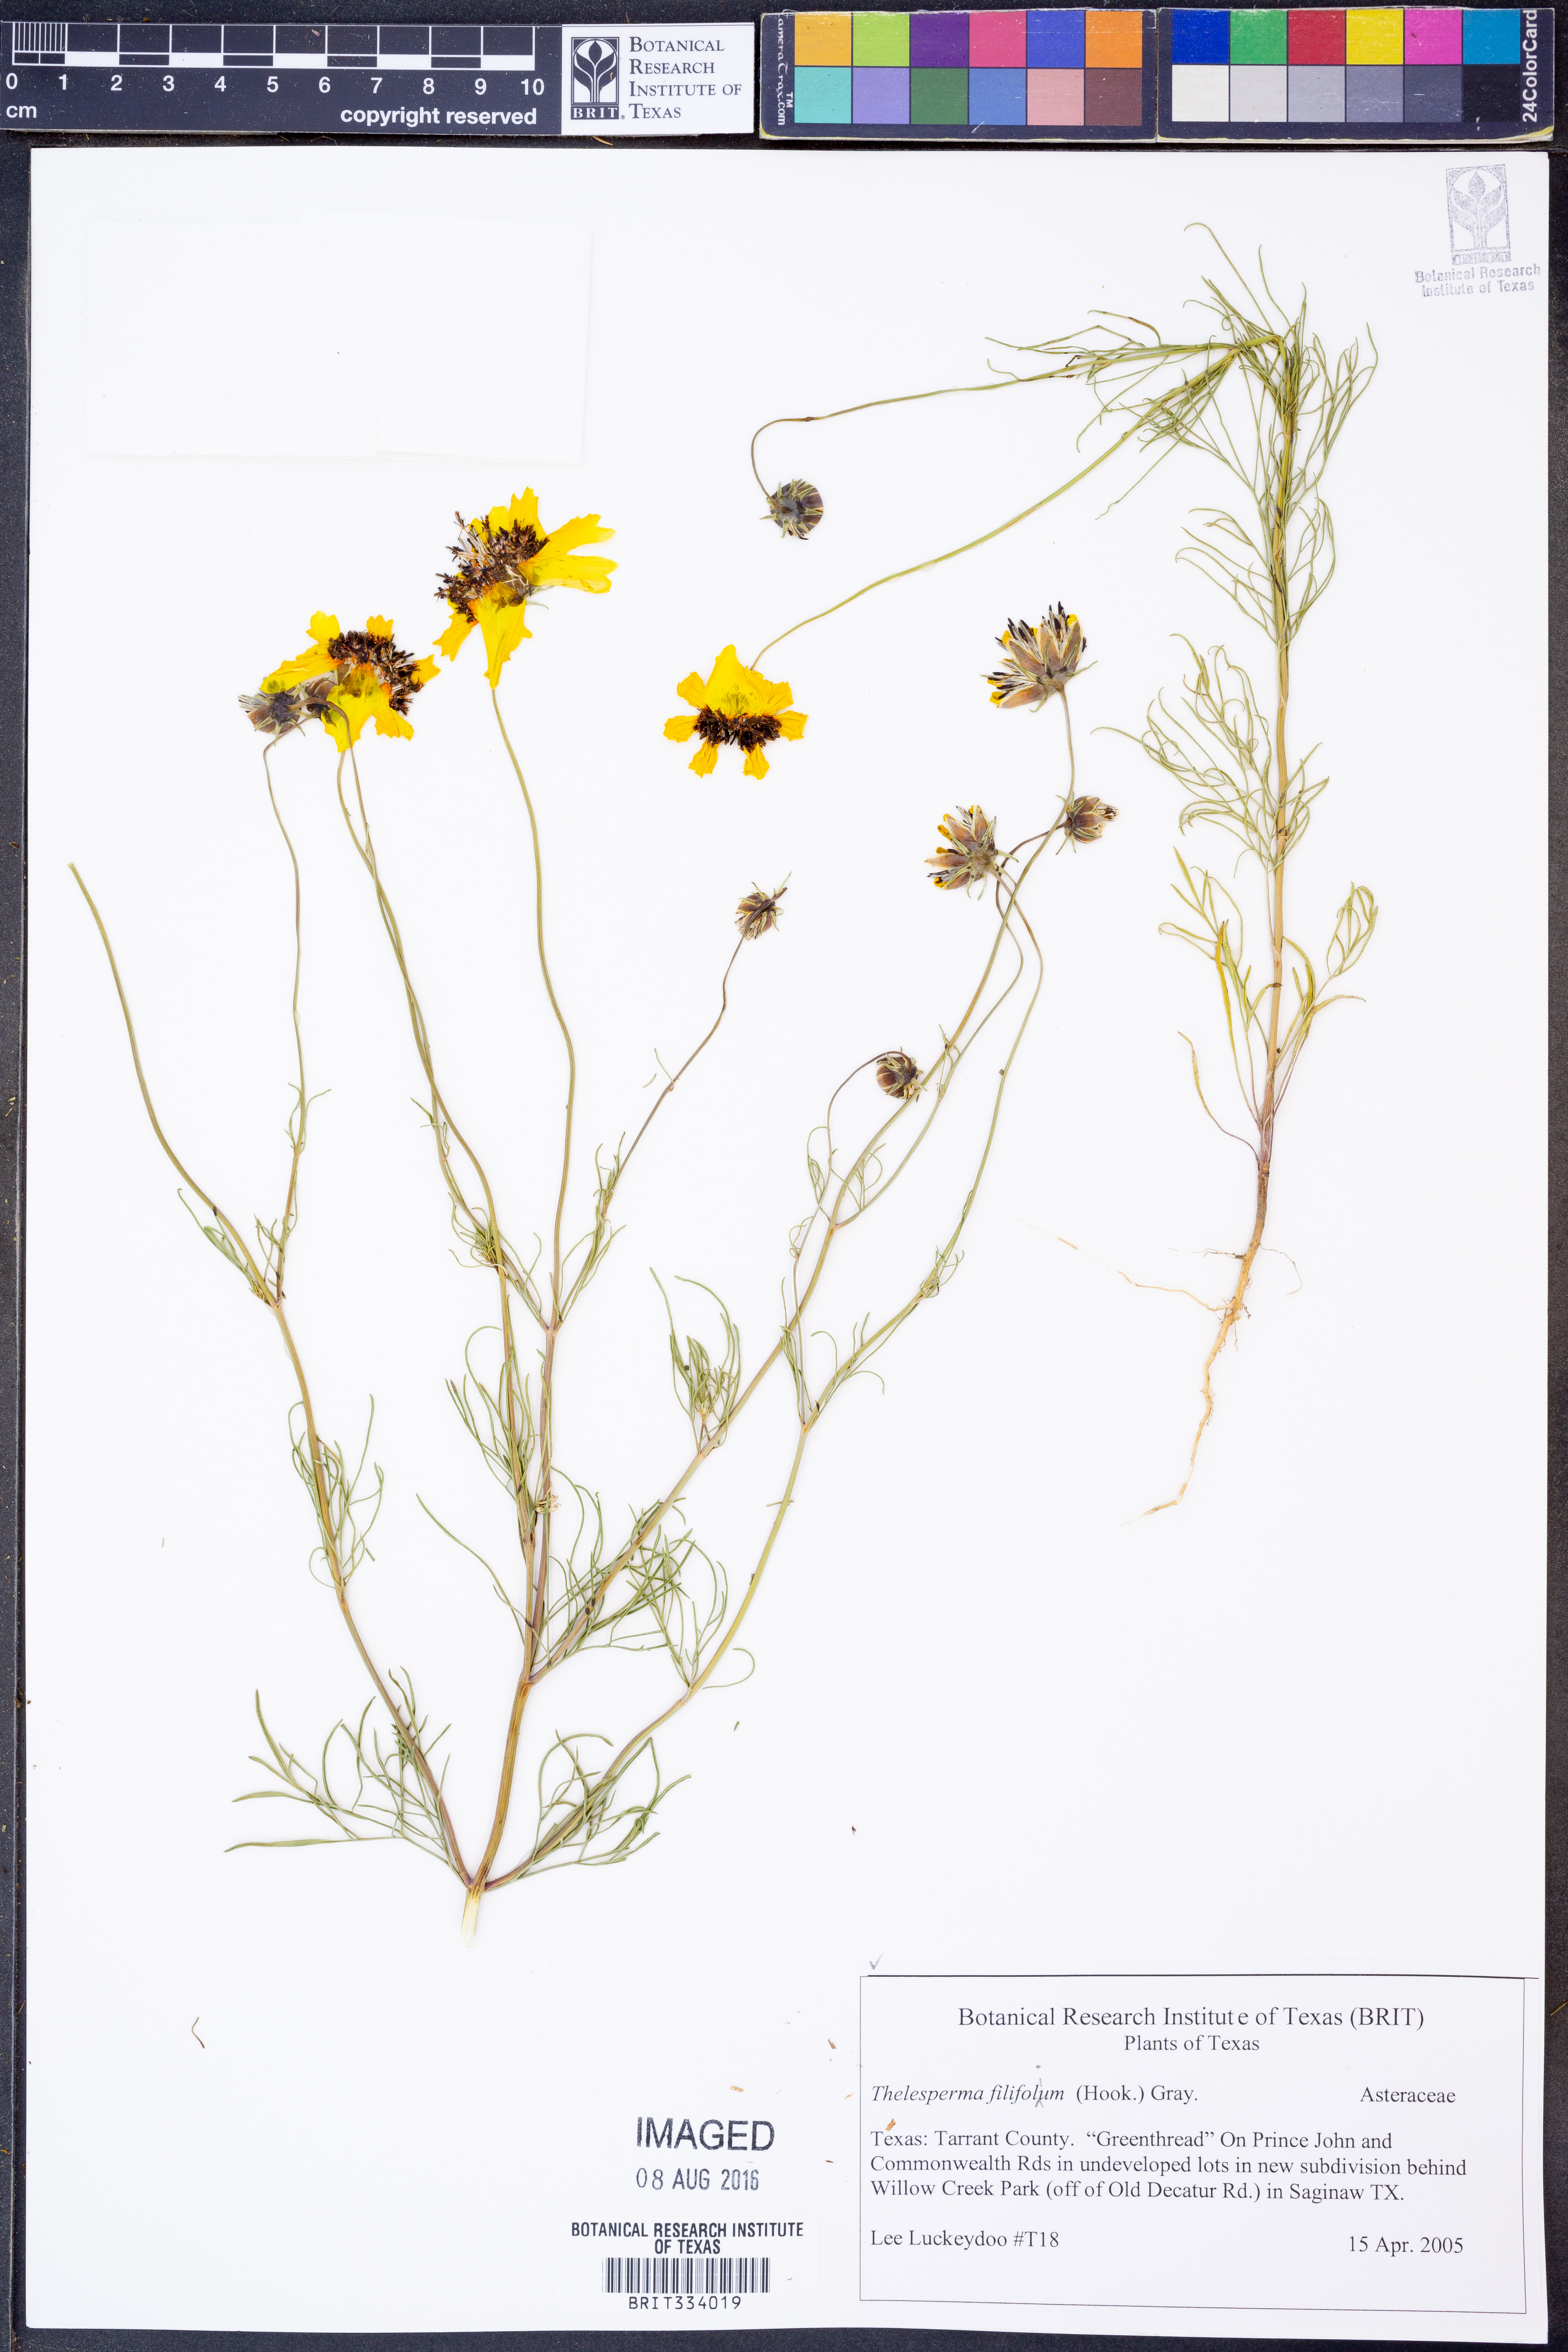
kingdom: Plantae
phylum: Tracheophyta
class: Magnoliopsida
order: Asterales
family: Asteraceae
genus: Thelesperma
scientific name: Thelesperma filifolium
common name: Stiff greenthread
